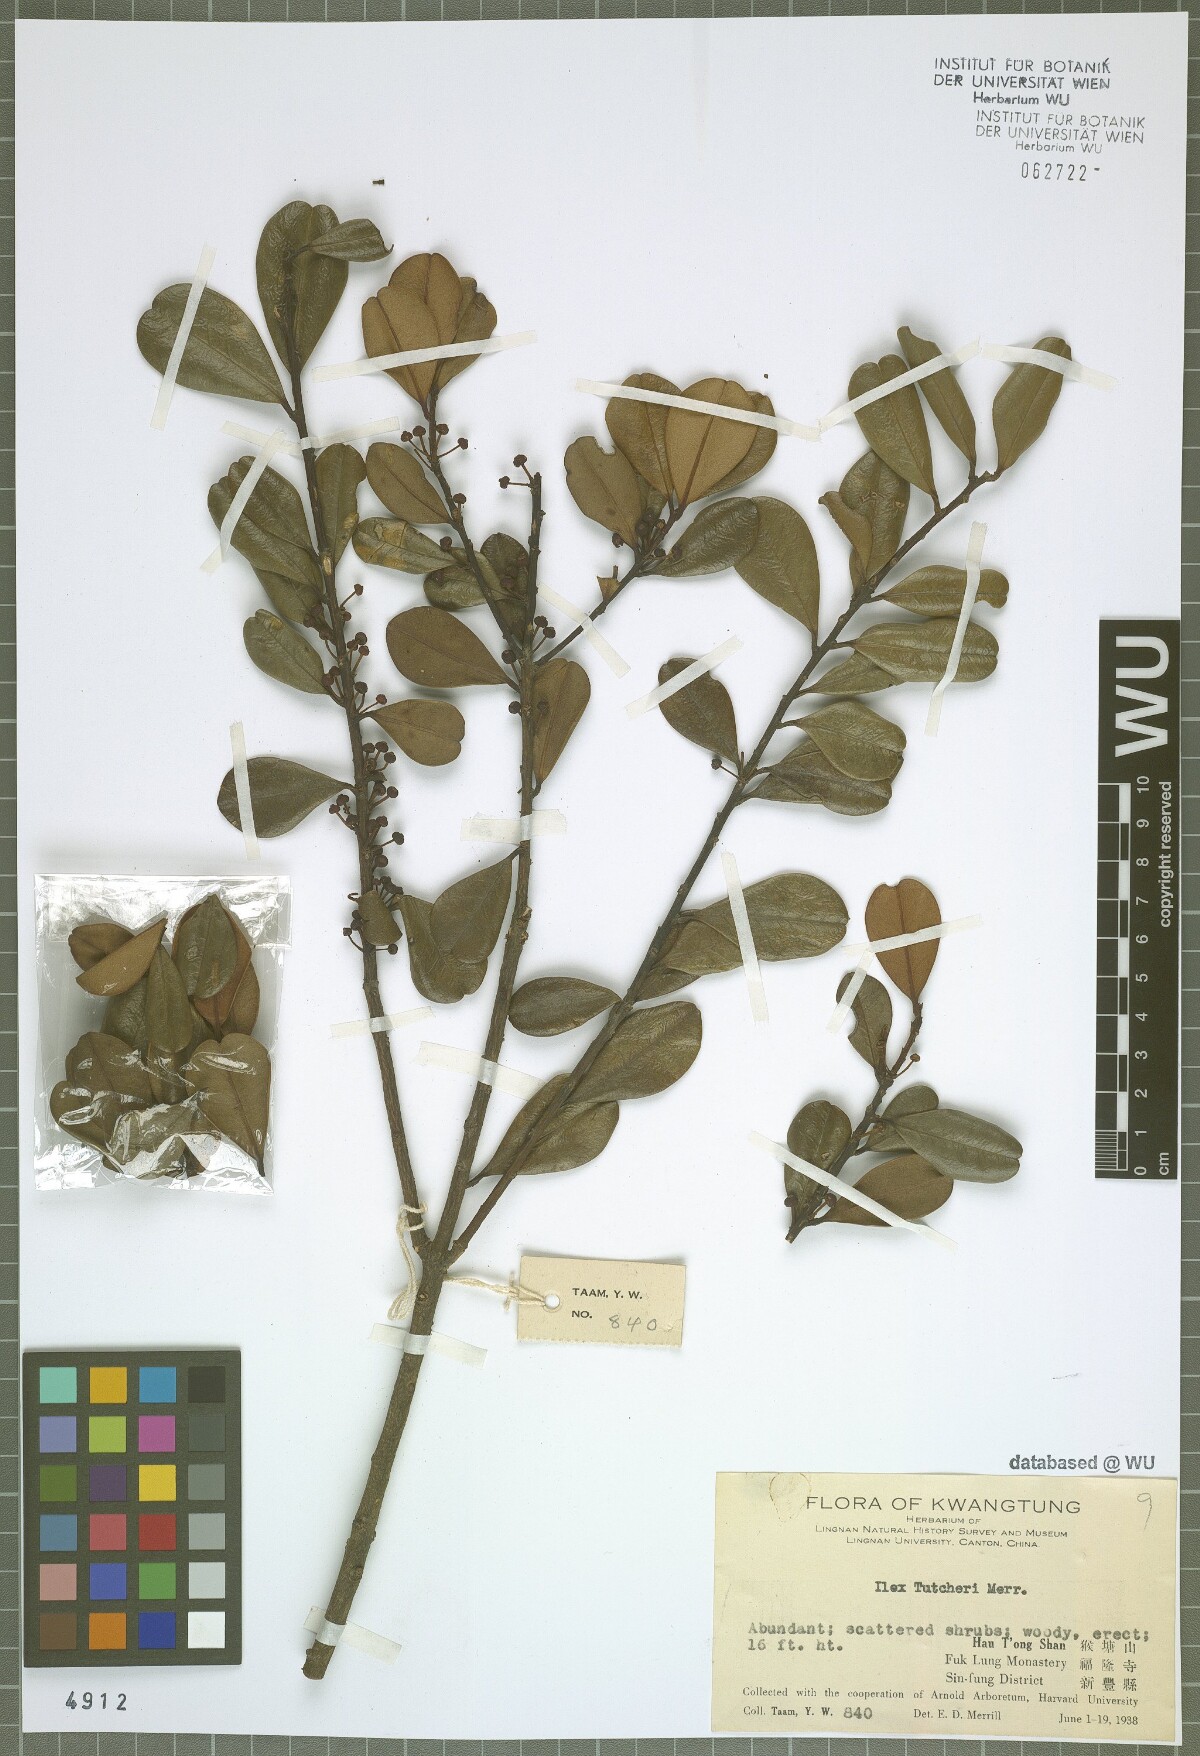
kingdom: Plantae
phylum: Tracheophyta
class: Magnoliopsida
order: Aquifoliales
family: Aquifoliaceae
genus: Ilex
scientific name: Ilex tutcheri
